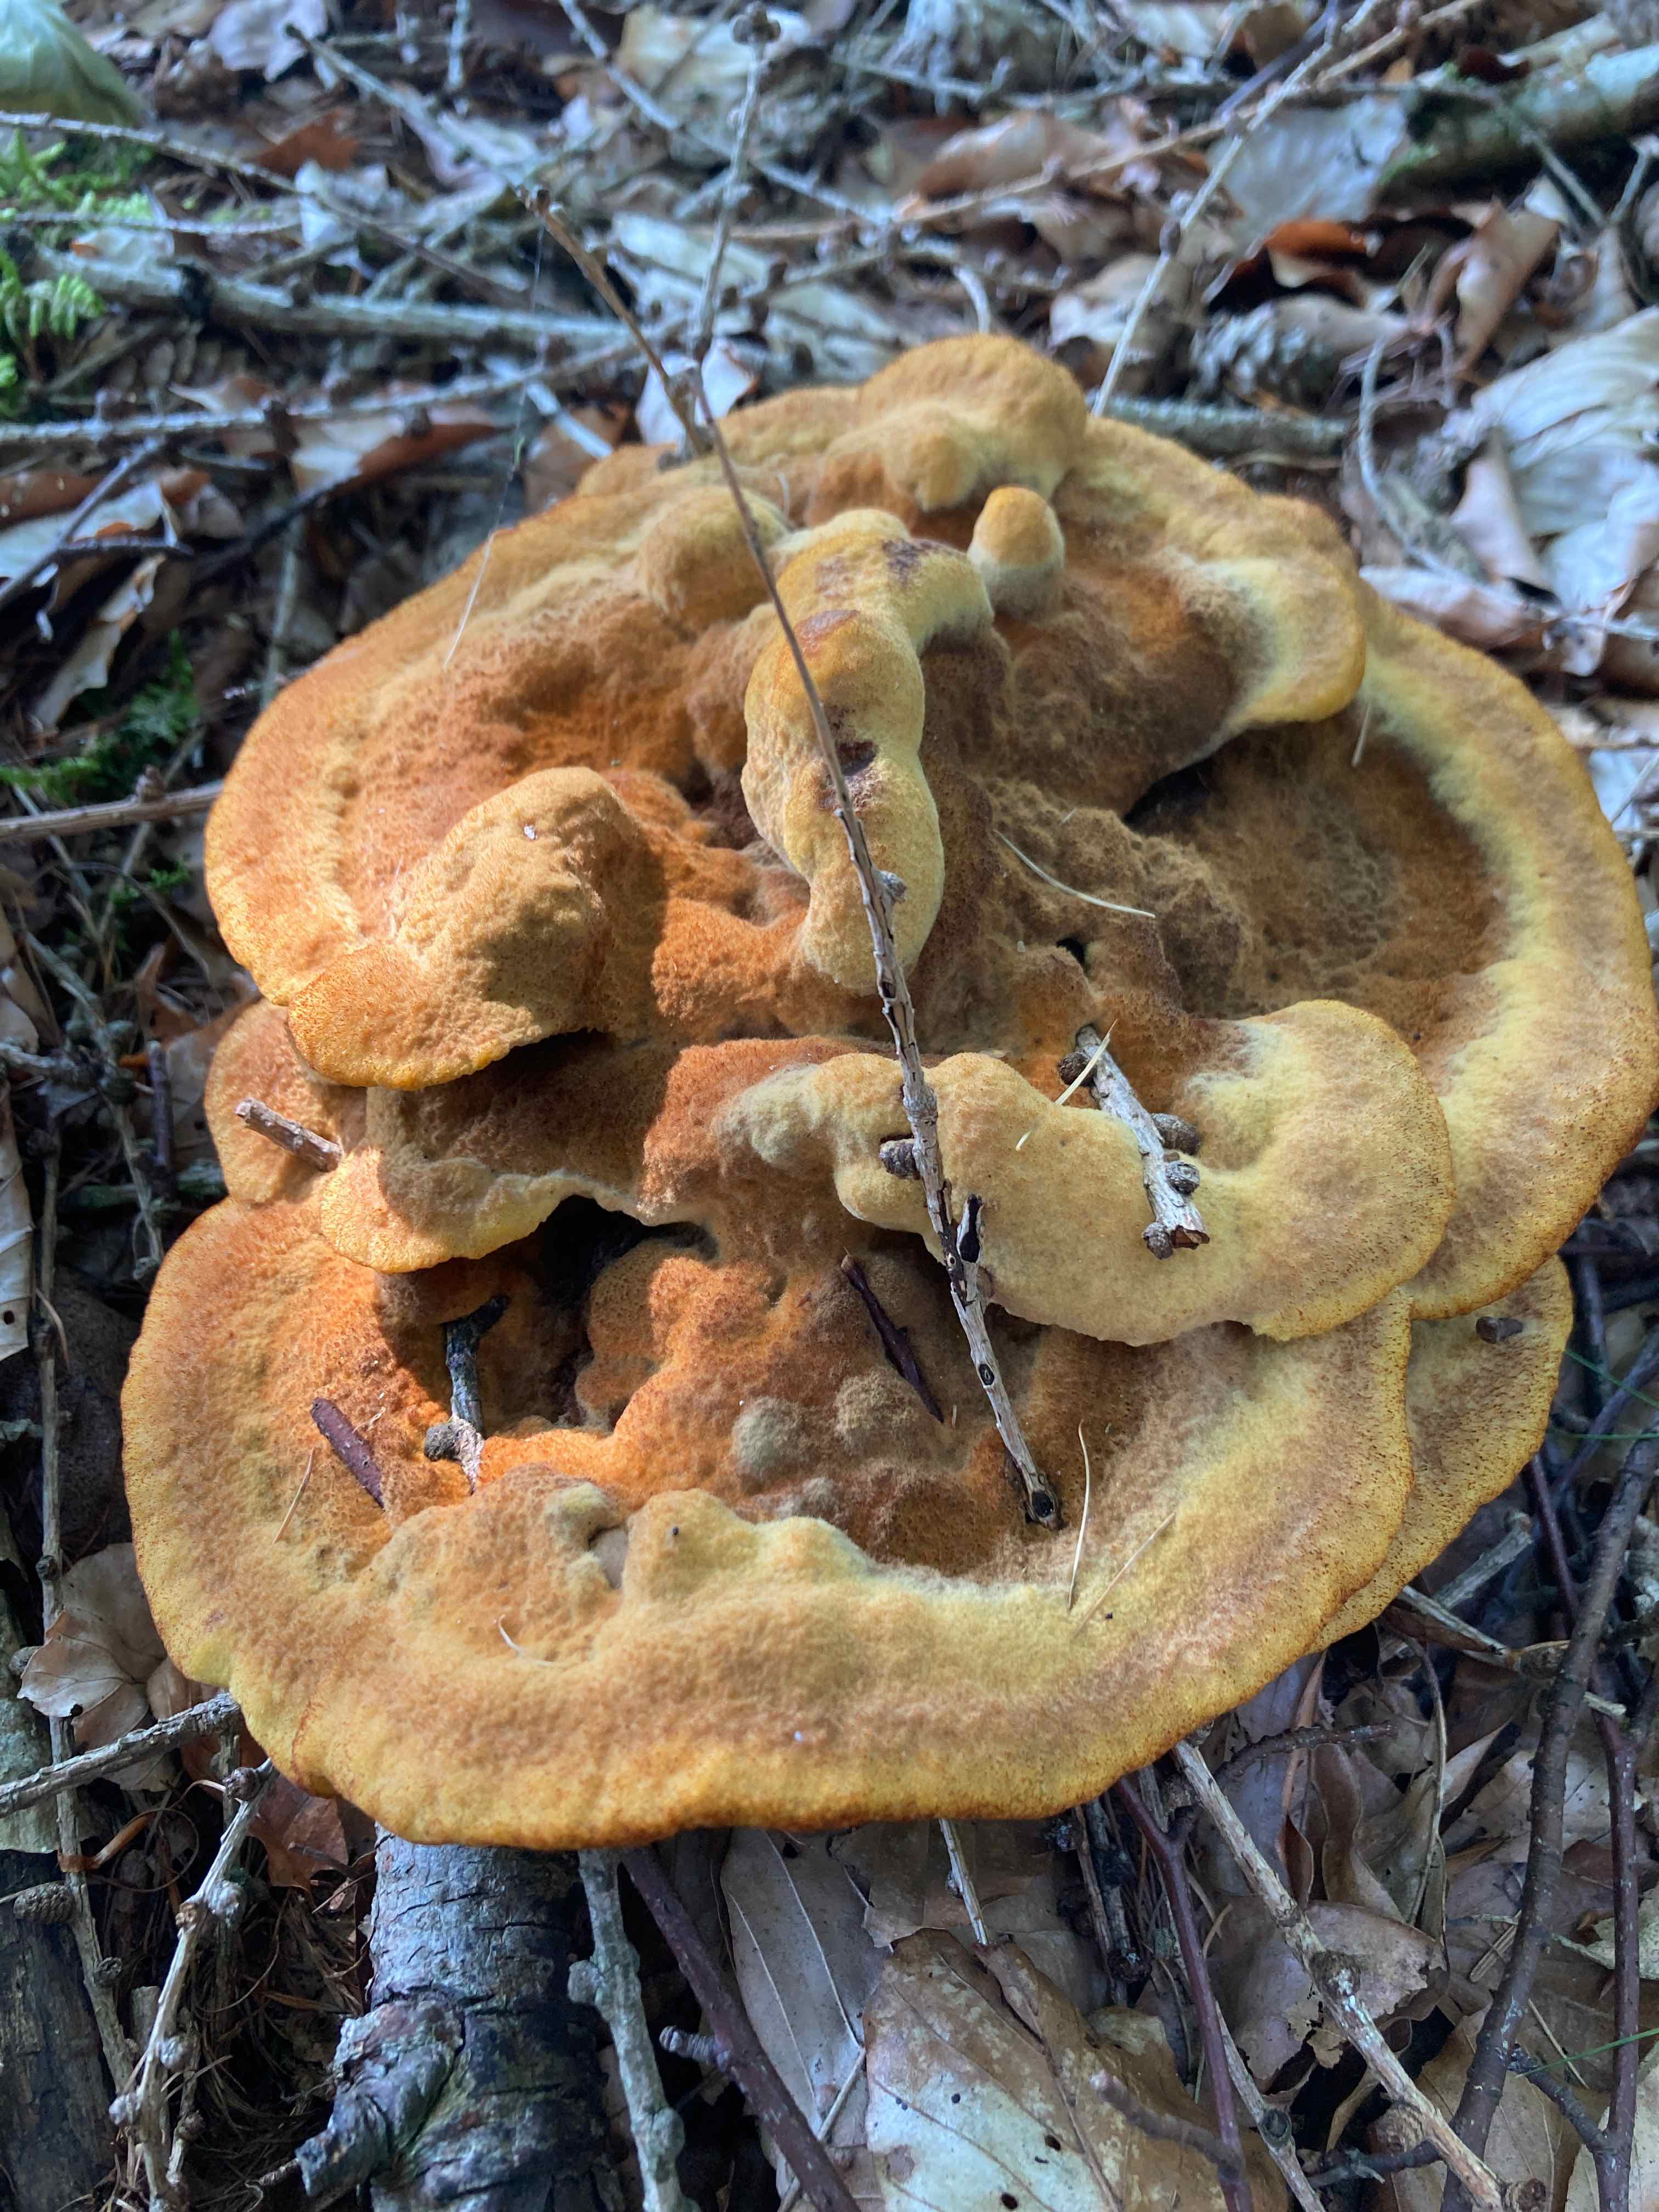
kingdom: Fungi
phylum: Basidiomycota
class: Agaricomycetes
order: Polyporales
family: Laetiporaceae
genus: Phaeolus
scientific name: Phaeolus schweinitzii
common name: brunporesvamp
